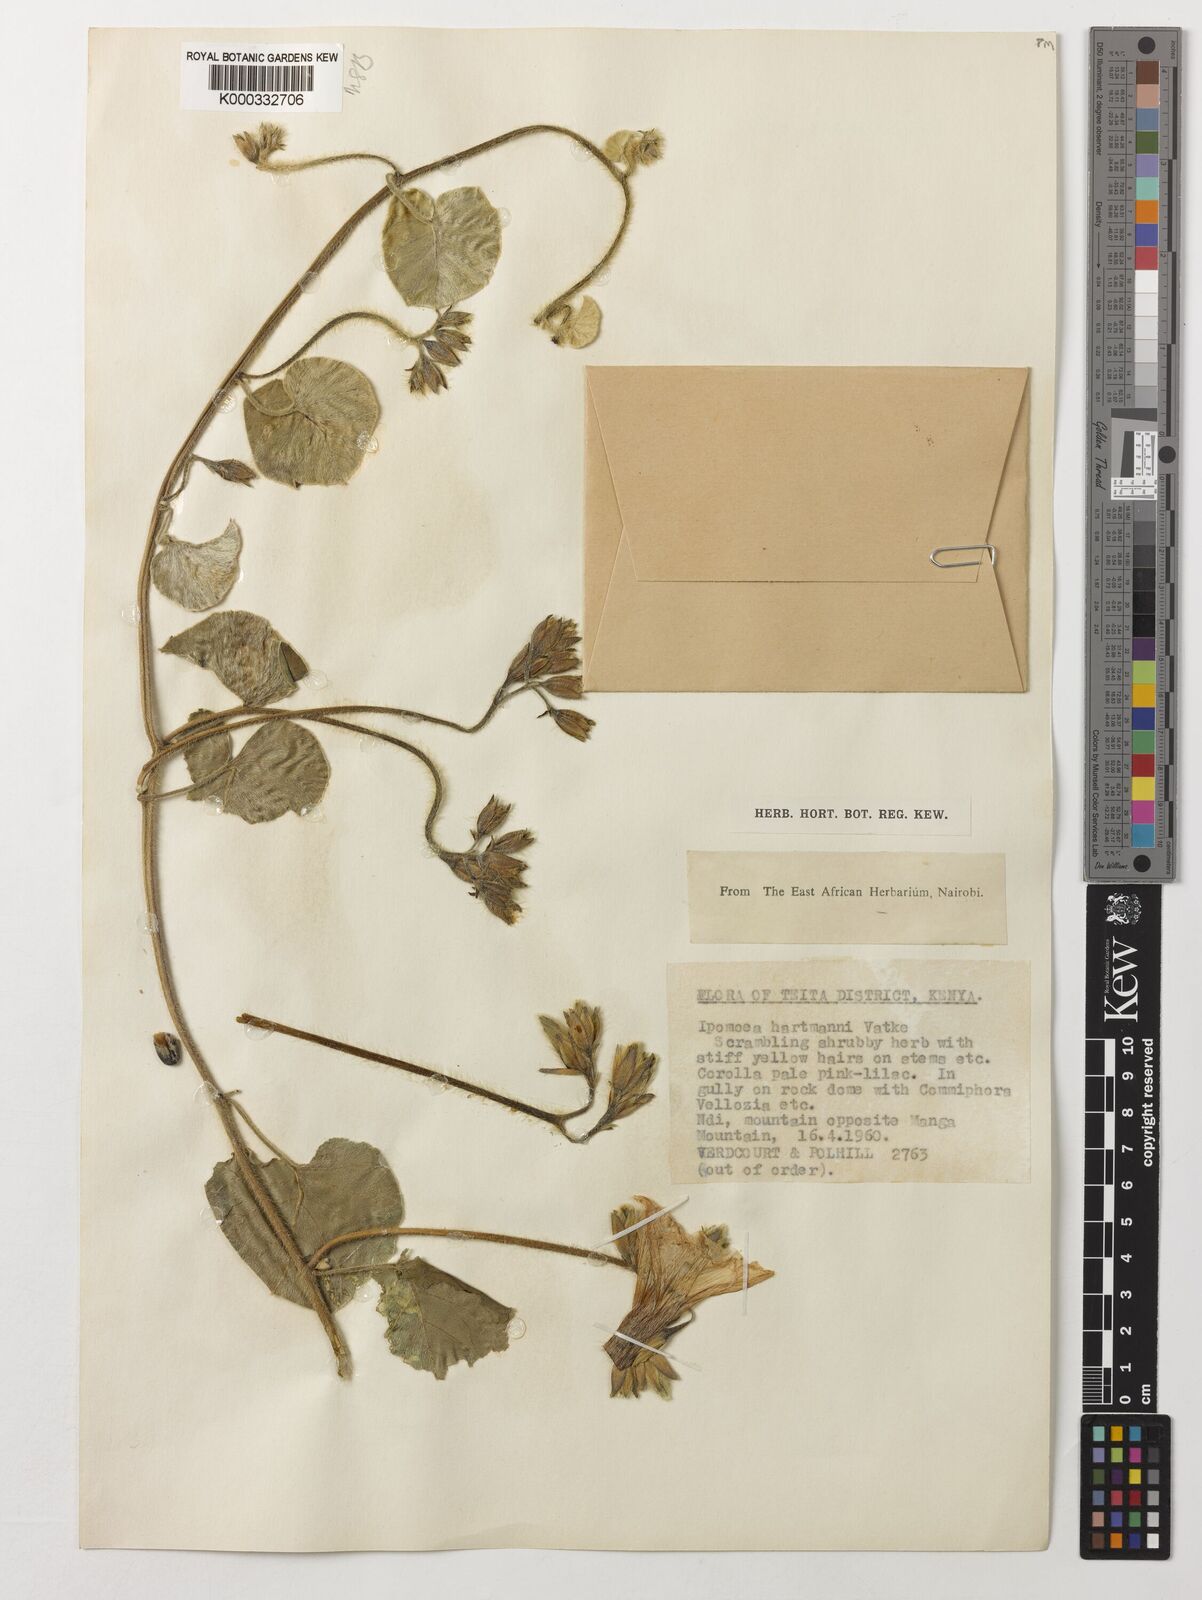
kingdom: Plantae
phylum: Tracheophyta
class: Magnoliopsida
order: Solanales
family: Convolvulaceae
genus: Ipomoea
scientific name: Ipomoea hartmannii
